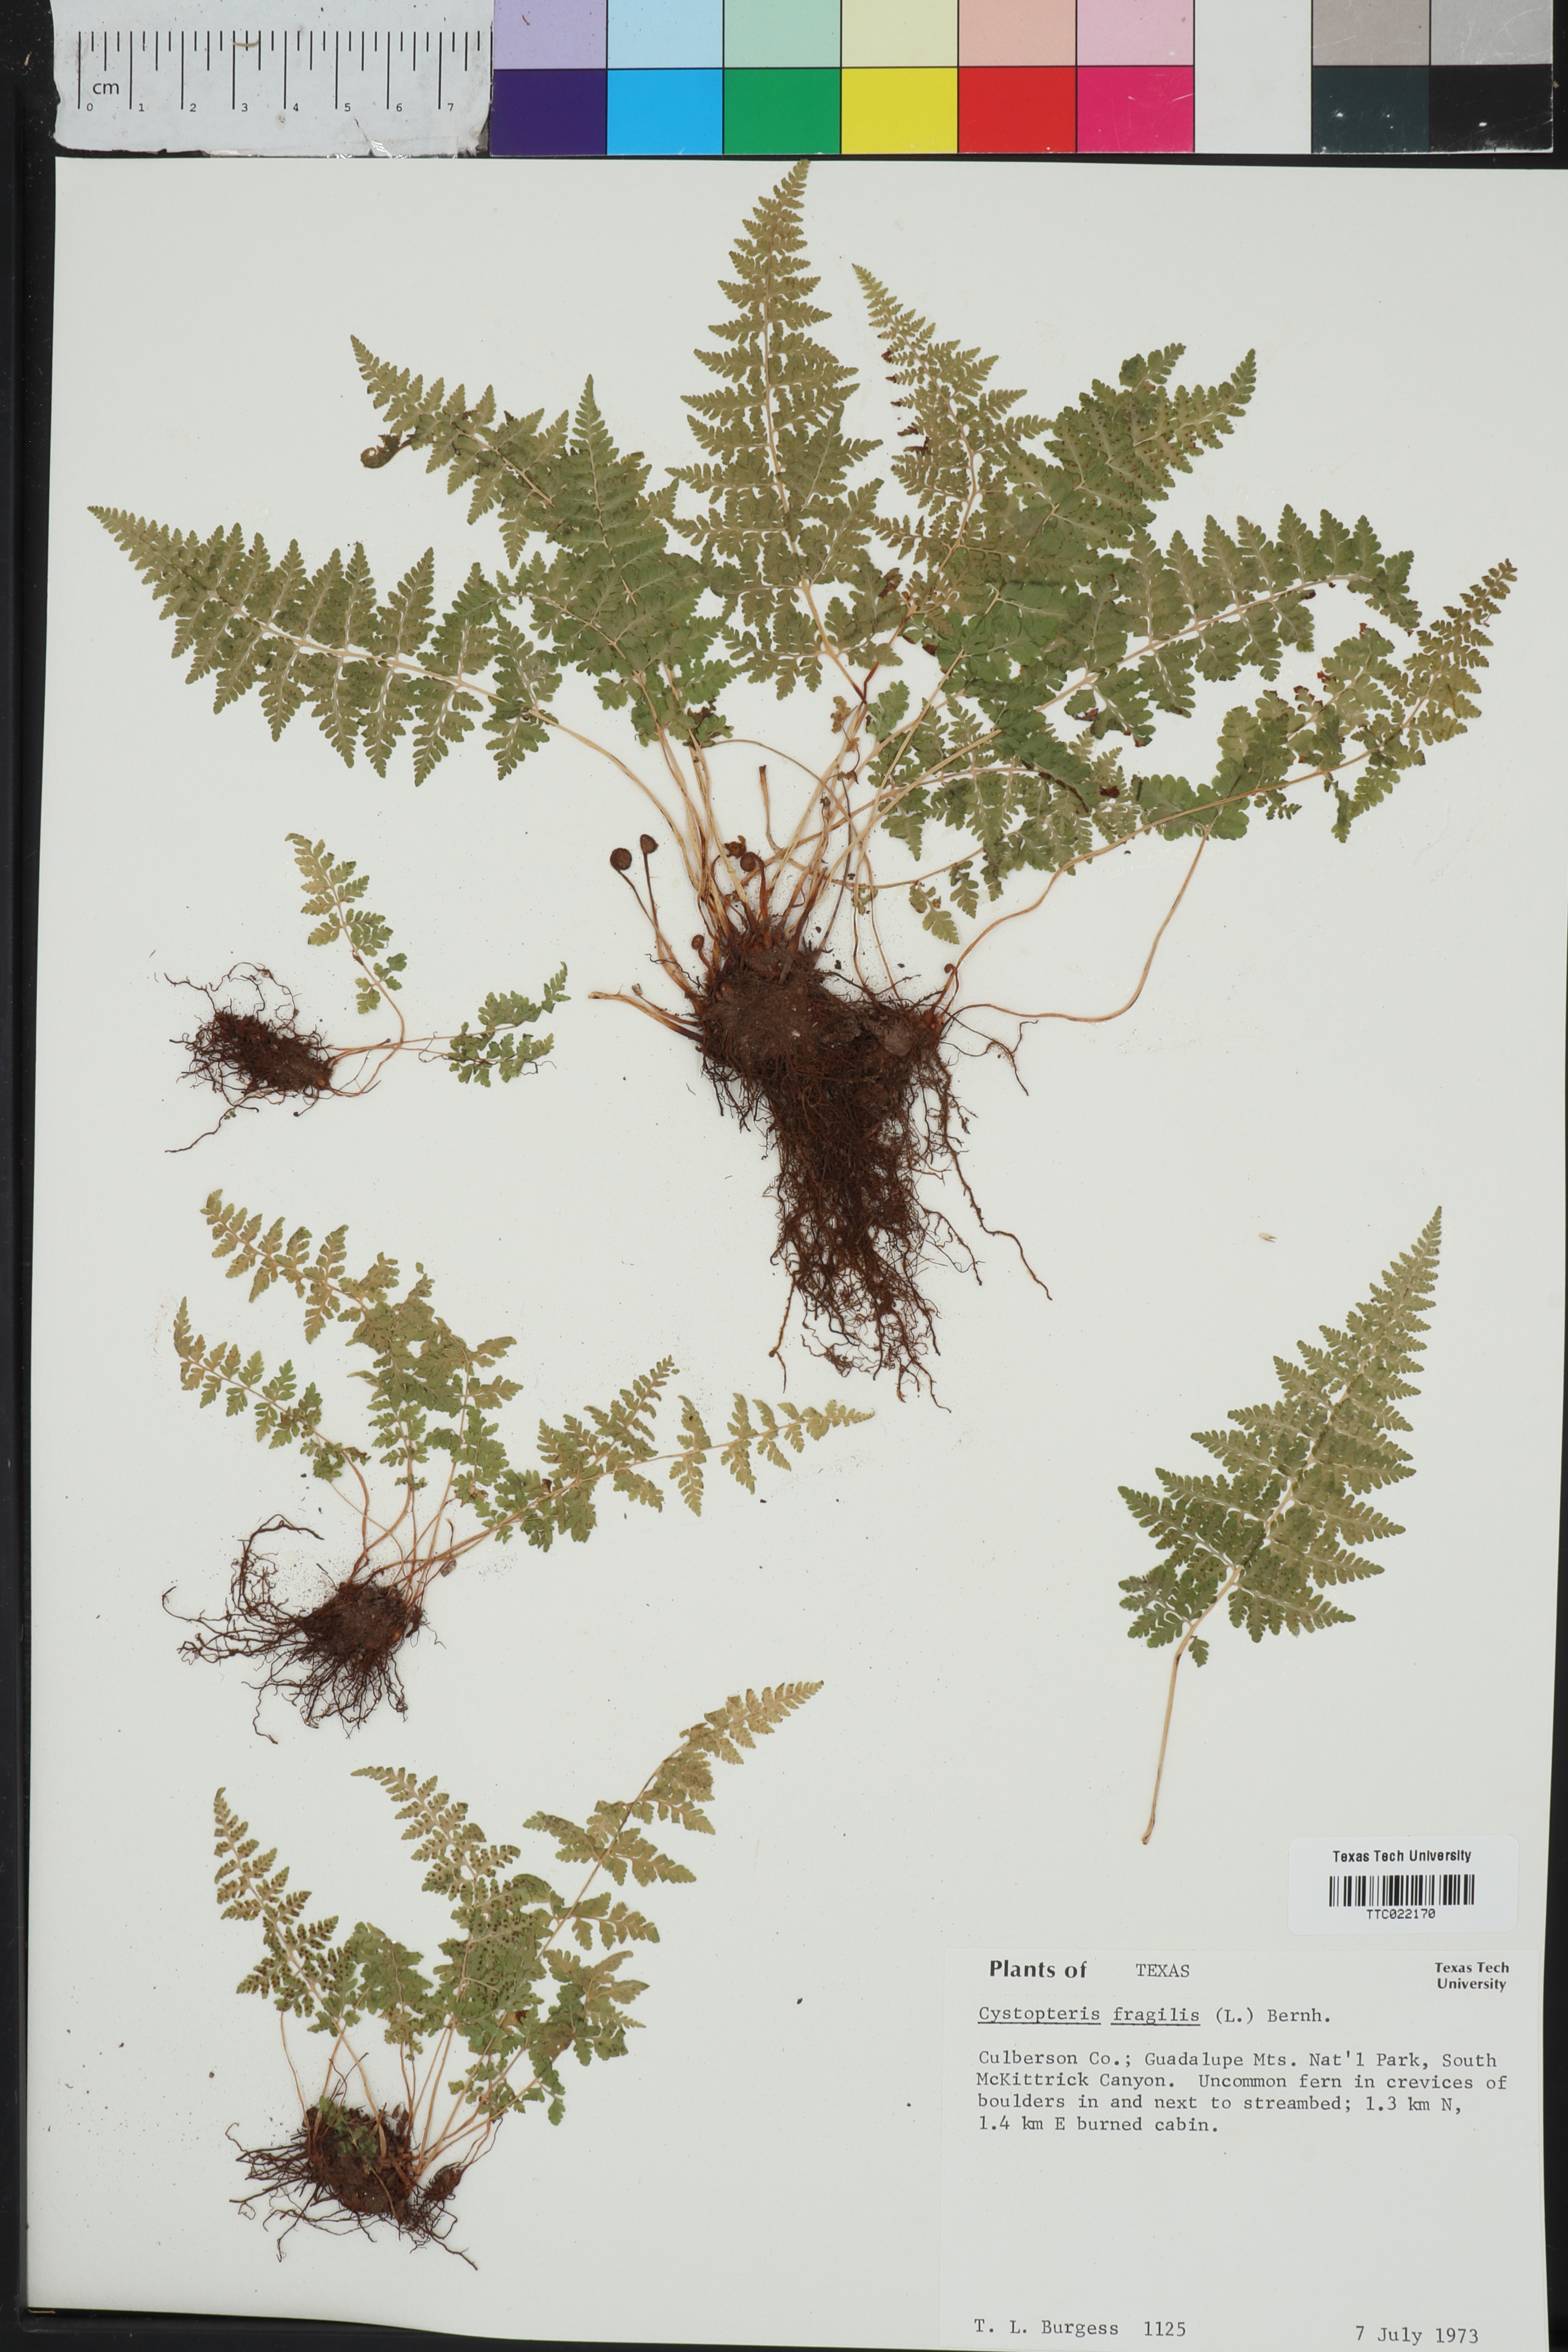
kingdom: Plantae
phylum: Tracheophyta
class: Polypodiopsida
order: Polypodiales
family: Cystopteridaceae
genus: Cystopteris
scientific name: Cystopteris fragilis
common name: Brittle bladder fern
